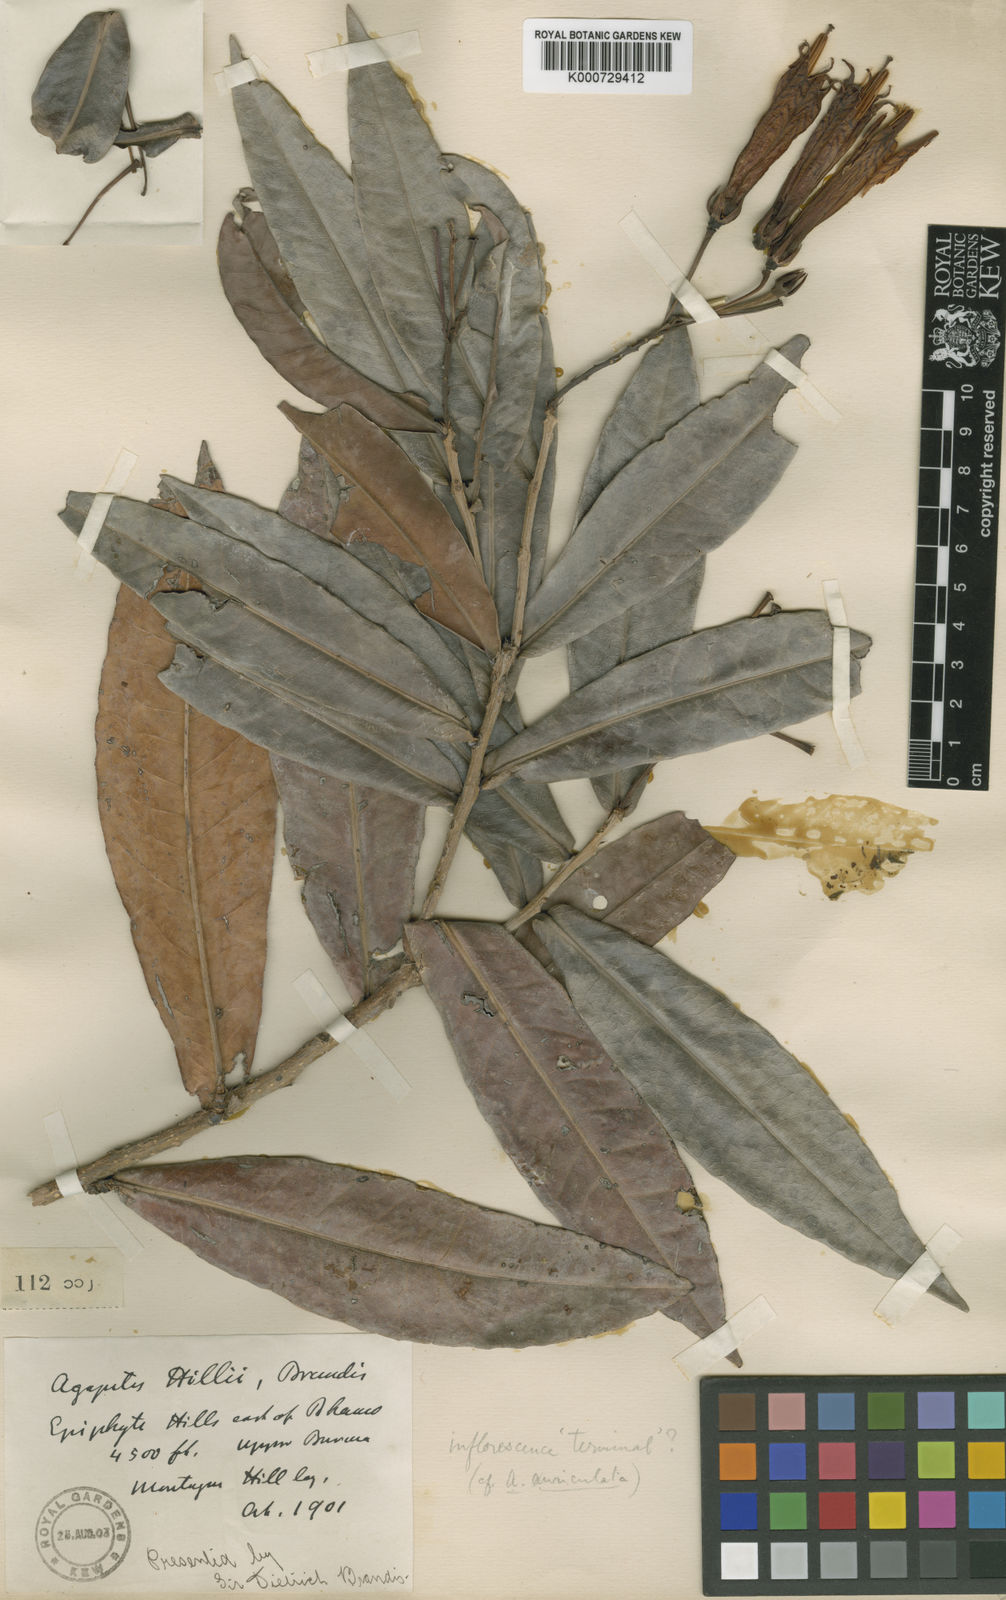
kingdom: Plantae
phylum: Tracheophyta
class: Magnoliopsida
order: Ericales
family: Ericaceae
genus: Agapetes
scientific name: Agapetes hillii
